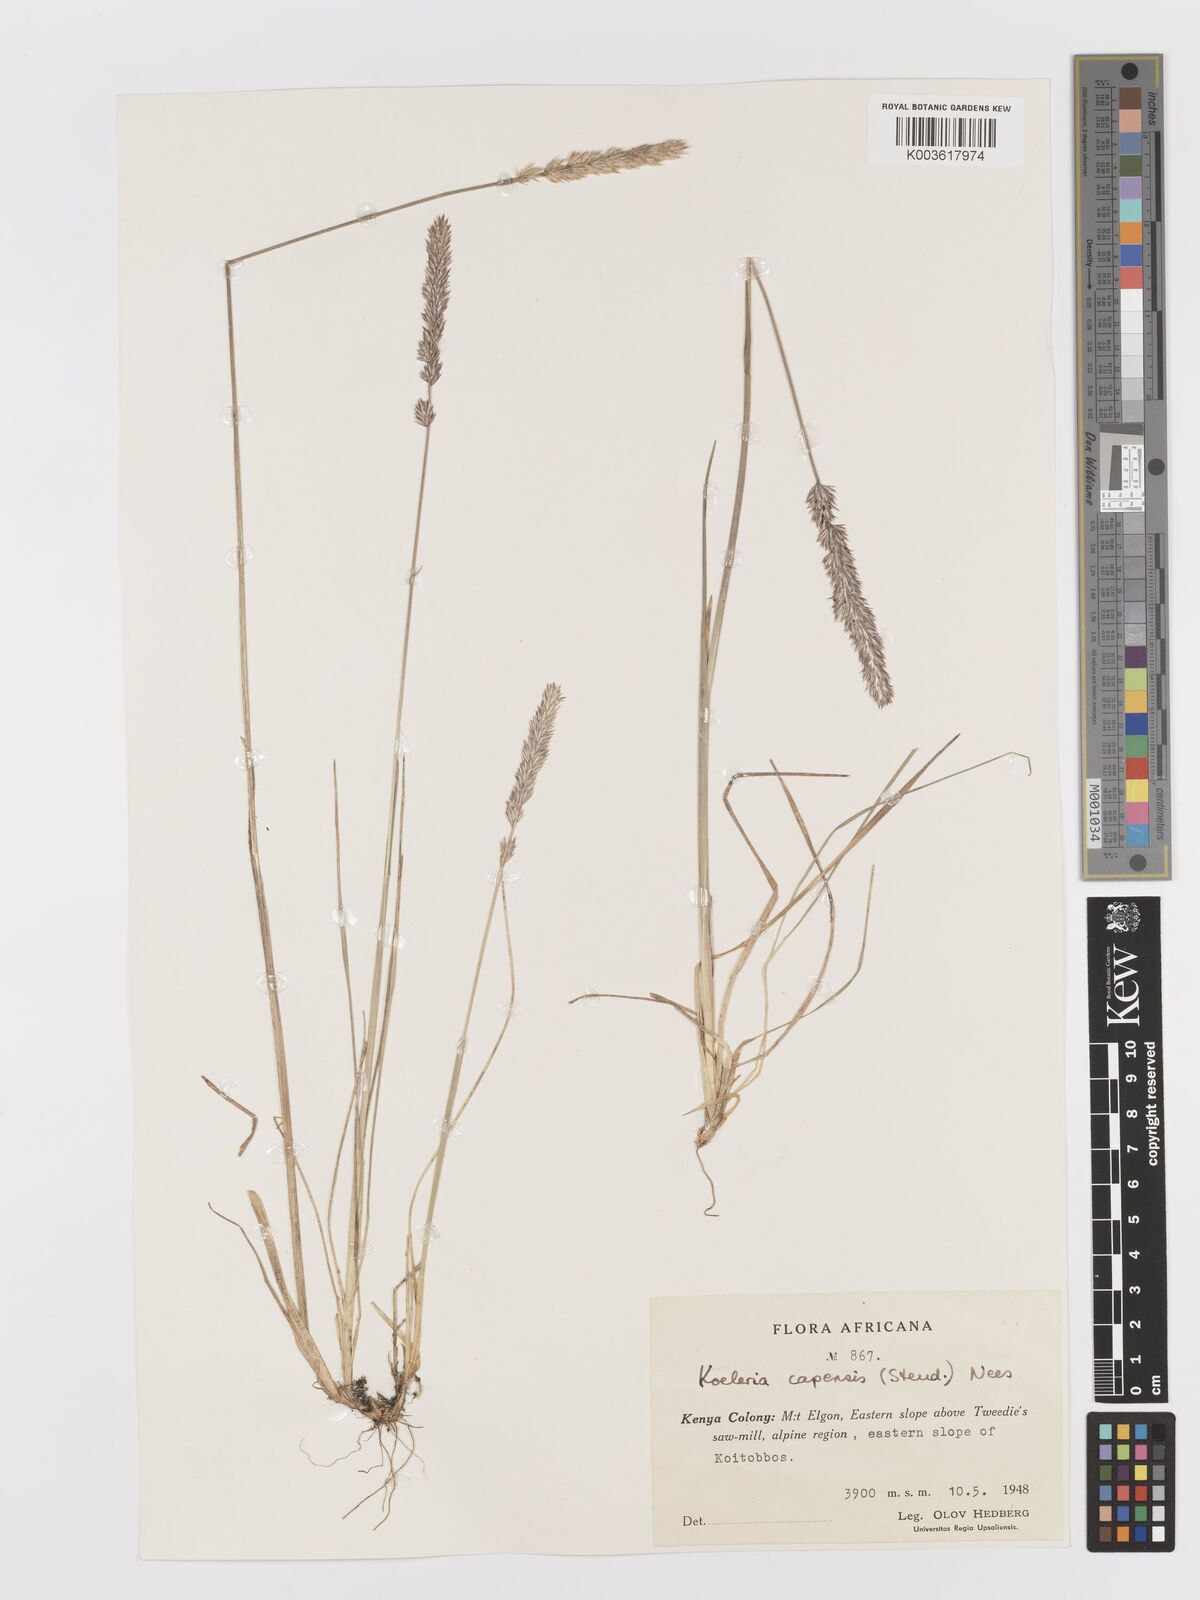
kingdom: Plantae
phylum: Tracheophyta
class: Liliopsida
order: Poales
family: Poaceae
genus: Koeleria
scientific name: Koeleria capensis
